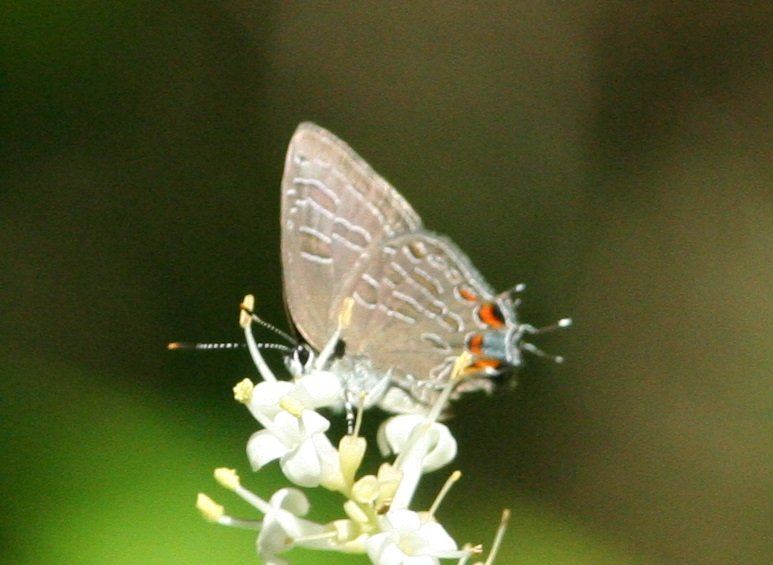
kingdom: Animalia
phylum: Arthropoda
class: Insecta
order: Lepidoptera
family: Lycaenidae
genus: Satyrium
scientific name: Satyrium
